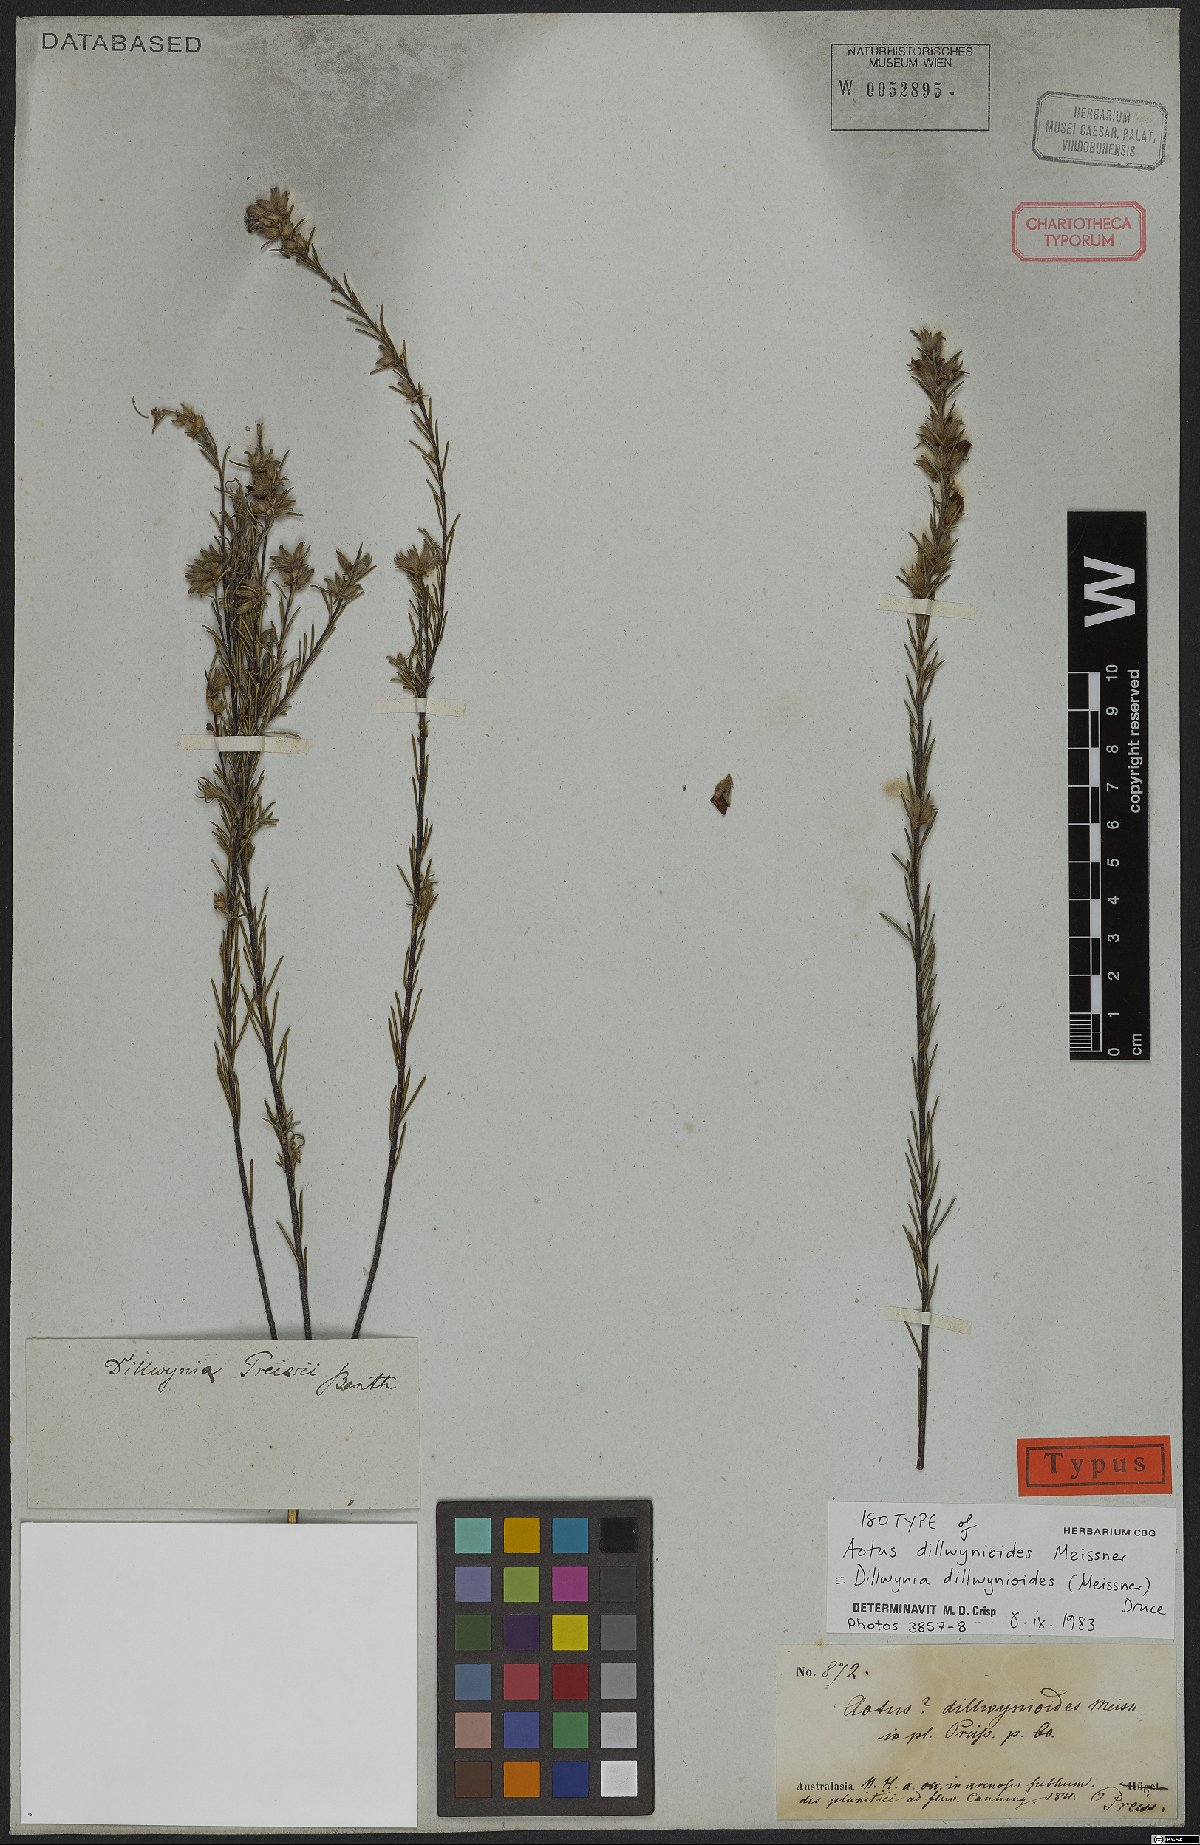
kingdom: Plantae
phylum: Tracheophyta
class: Magnoliopsida
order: Fabales
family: Fabaceae
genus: Dillwynia
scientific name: Dillwynia dillwynioides
